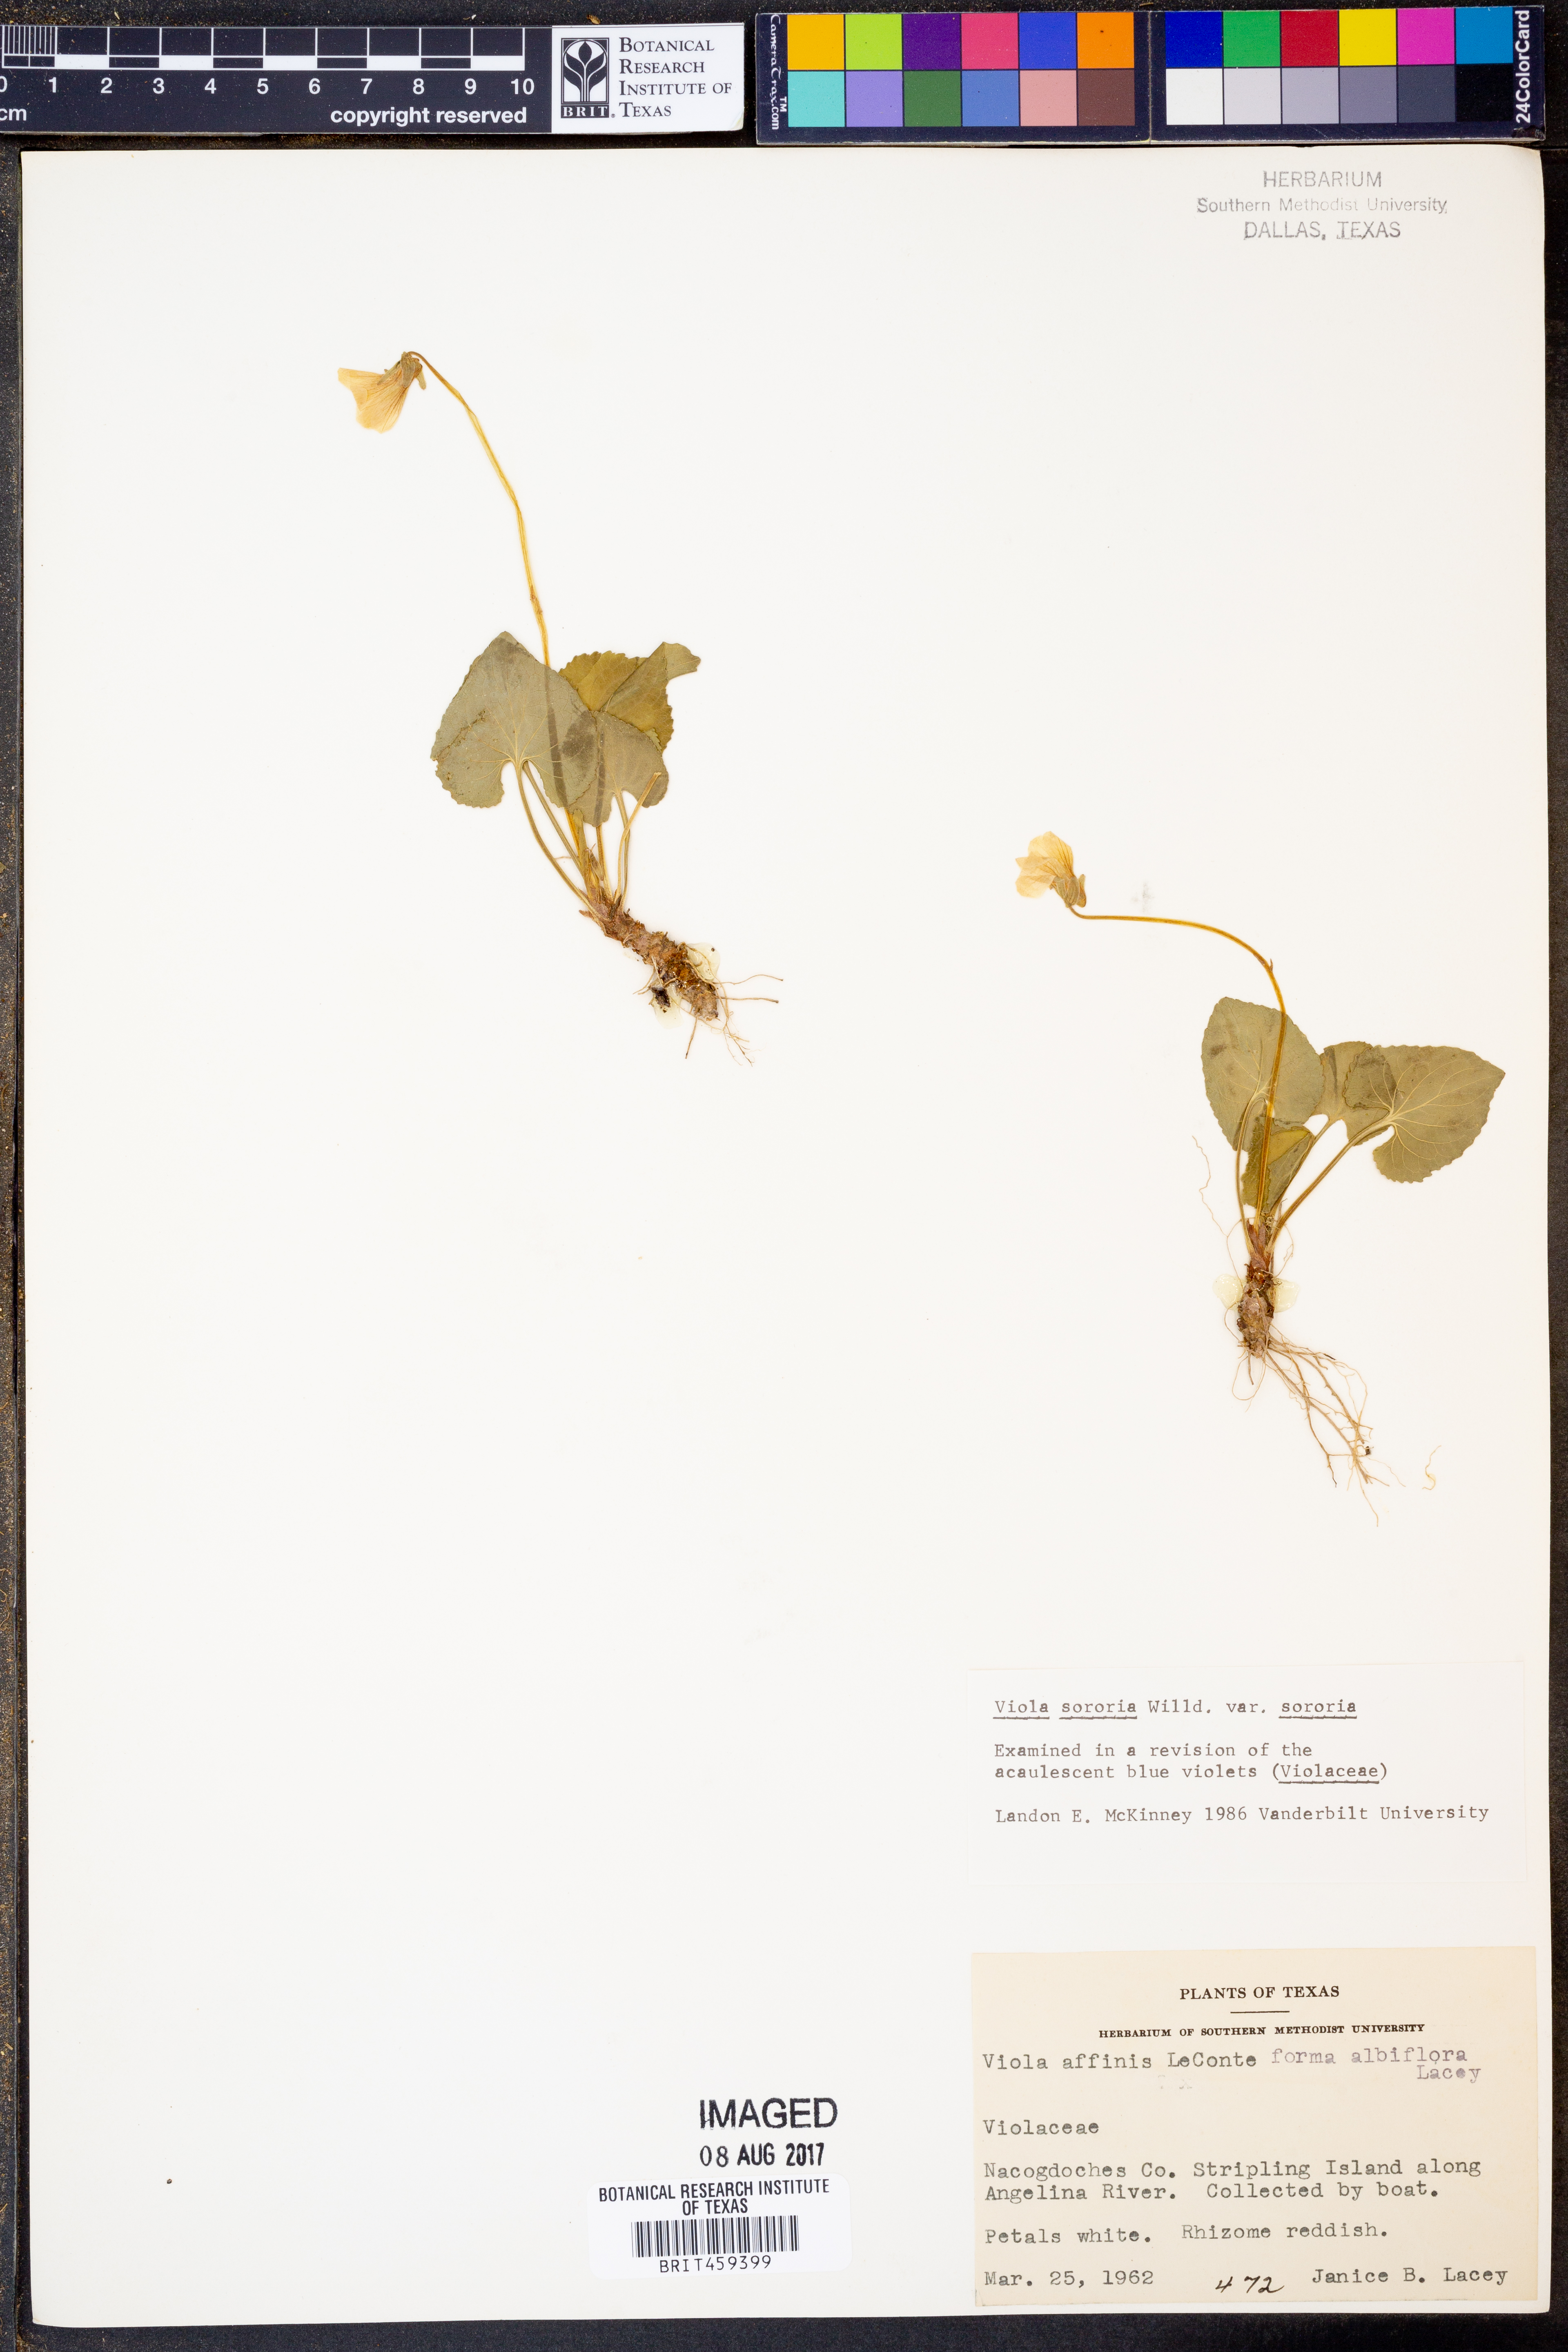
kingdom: Plantae
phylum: Tracheophyta
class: Magnoliopsida
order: Malpighiales
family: Violaceae
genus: Viola
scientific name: Viola sororia
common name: Dooryard violet
